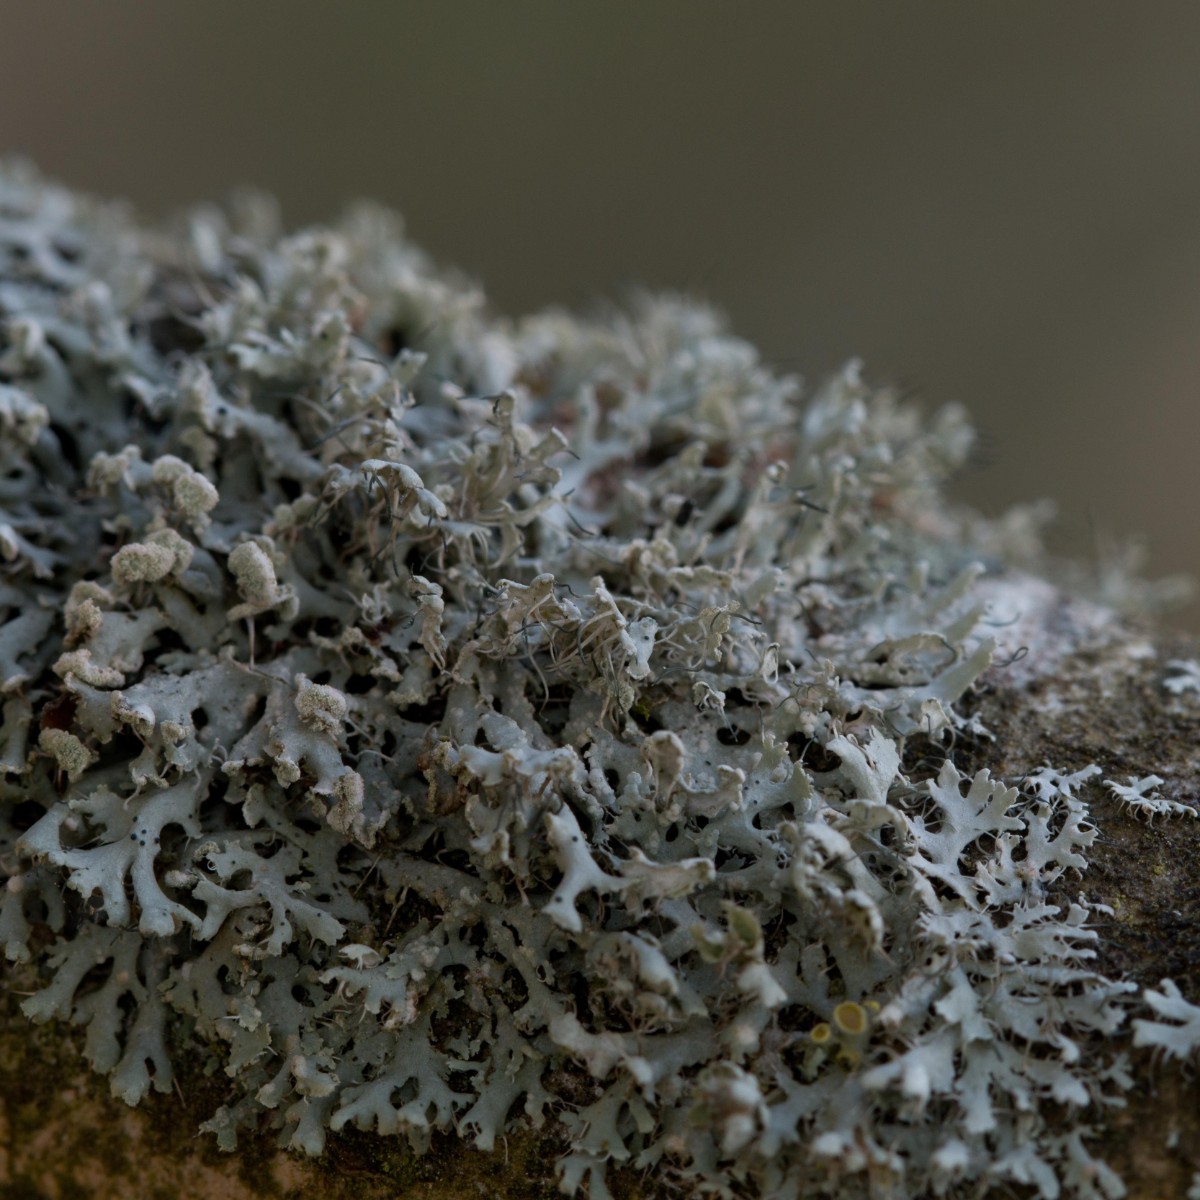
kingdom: Fungi
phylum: Ascomycota
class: Lecanoromycetes
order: Caliciales
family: Physciaceae
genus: Physcia
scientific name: Physcia tenella
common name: spæd rosetlav
